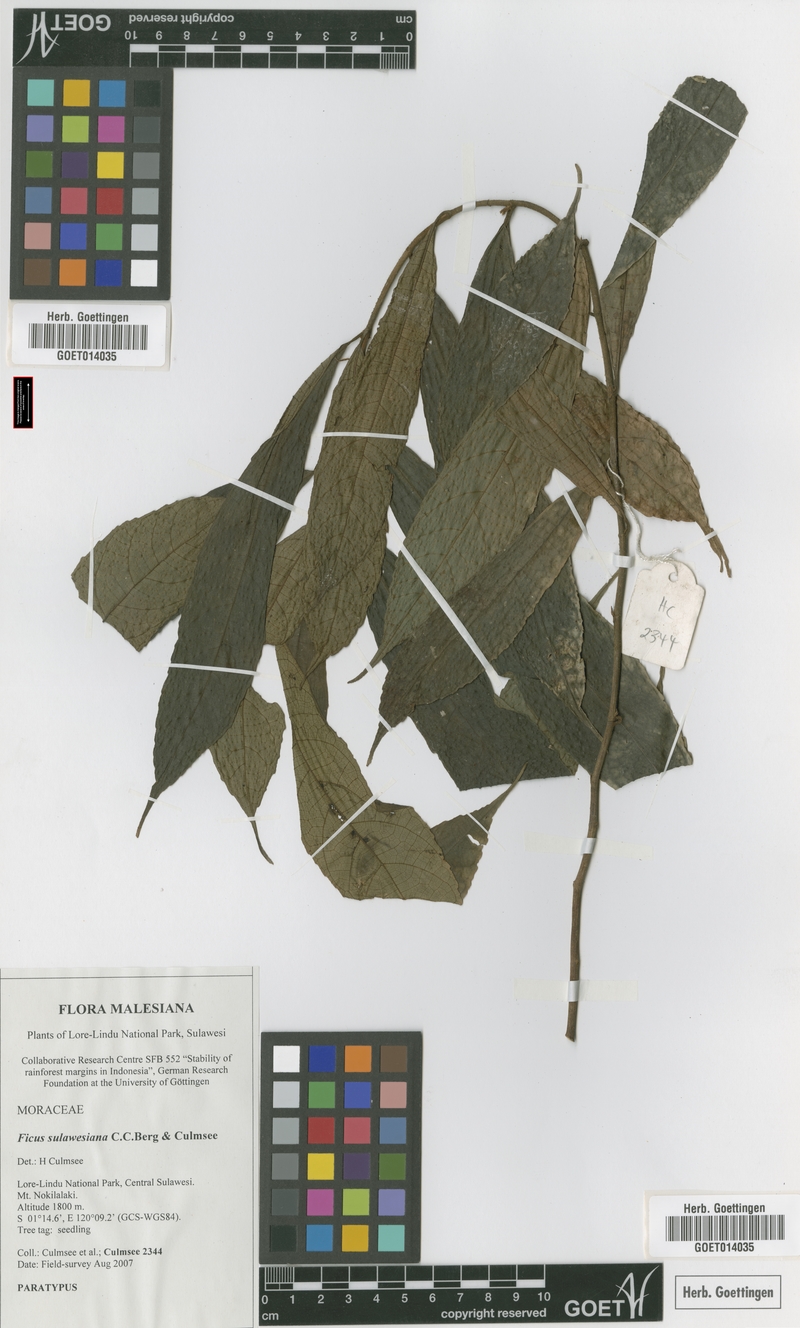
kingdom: Plantae
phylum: Tracheophyta
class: Magnoliopsida
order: Rosales
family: Moraceae
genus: Ficus
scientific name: Ficus sulawesiana
